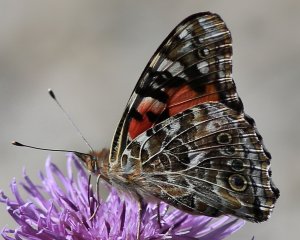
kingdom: Animalia
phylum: Arthropoda
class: Insecta
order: Lepidoptera
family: Nymphalidae
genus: Vanessa
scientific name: Vanessa cardui
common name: Painted Lady
